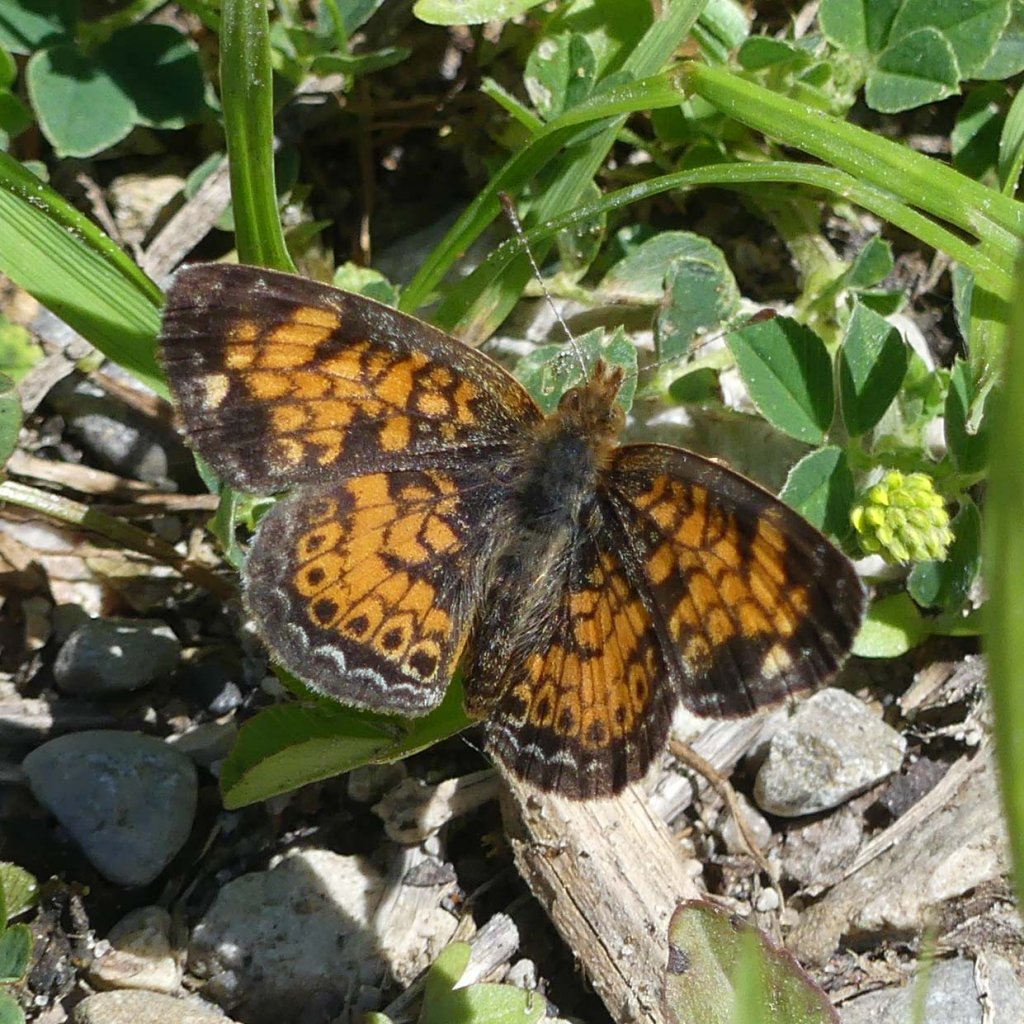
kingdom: Animalia
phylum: Arthropoda
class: Insecta
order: Lepidoptera
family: Nymphalidae
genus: Phyciodes
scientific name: Phyciodes tharos
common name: Pearl Crescent
